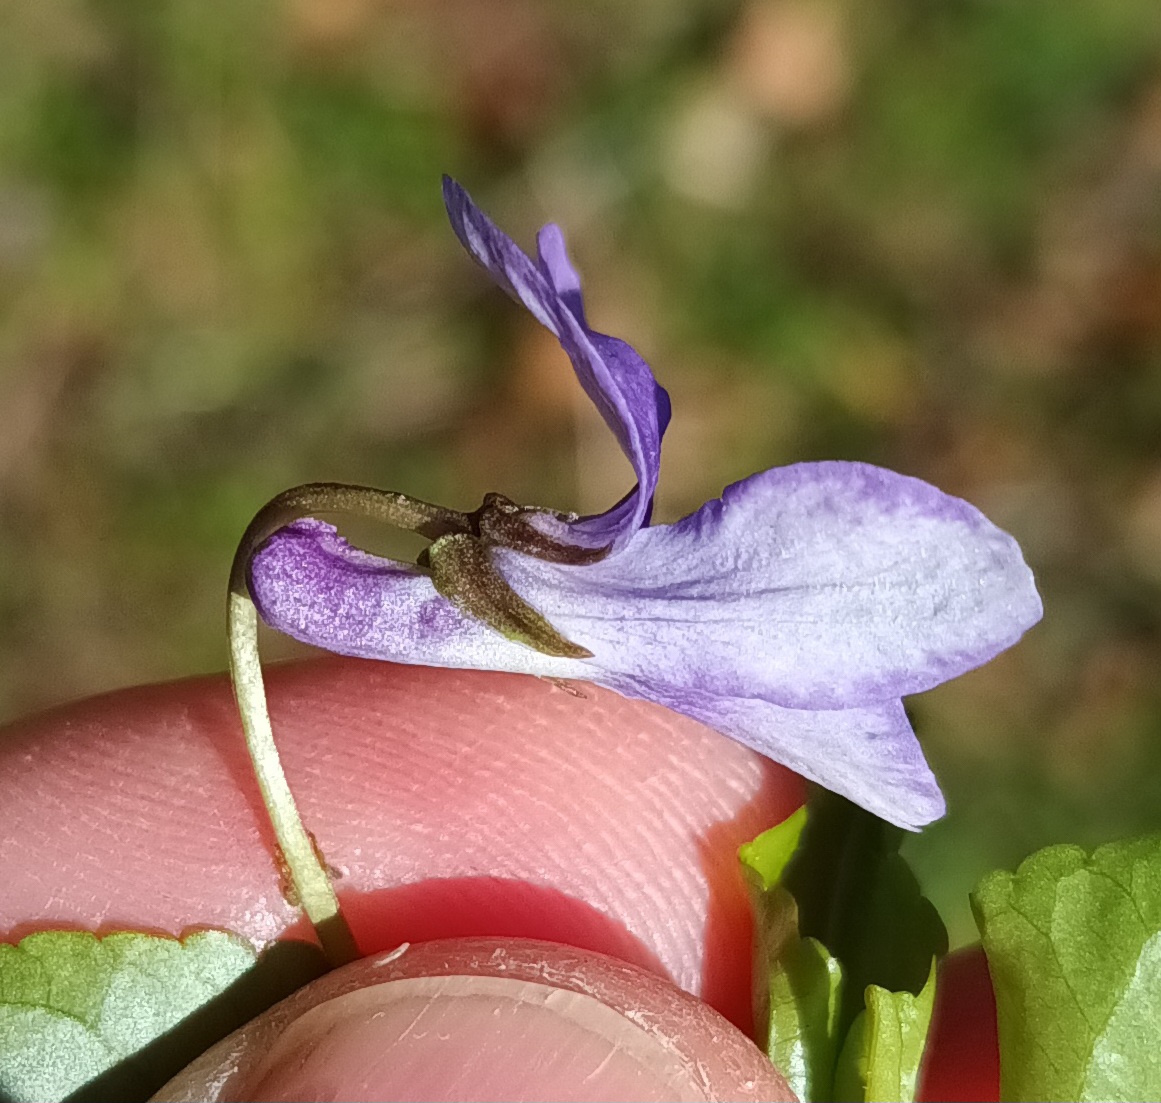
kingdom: Plantae
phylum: Tracheophyta
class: Magnoliopsida
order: Malpighiales
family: Violaceae
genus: Viola
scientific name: Viola reichenbachiana
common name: Skov-viol
